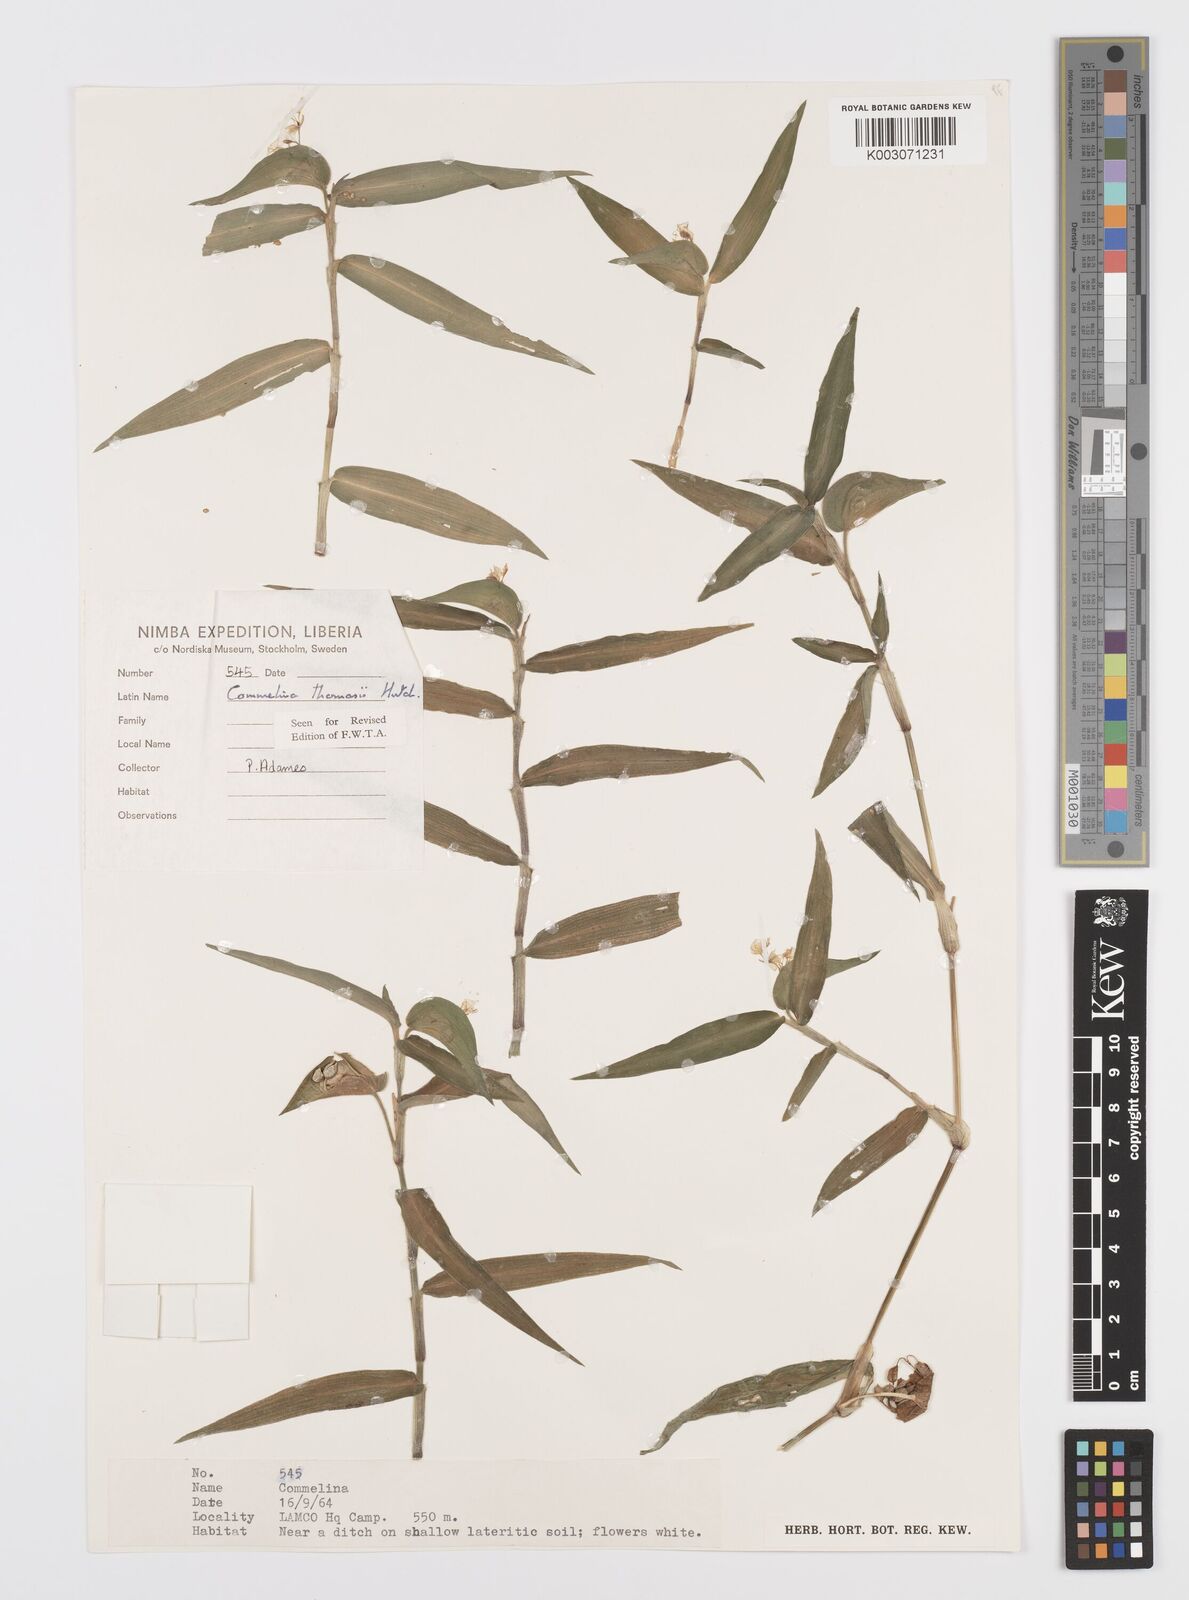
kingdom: Plantae
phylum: Tracheophyta
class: Liliopsida
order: Commelinales
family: Commelinaceae
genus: Commelina
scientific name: Commelina acutispatha
